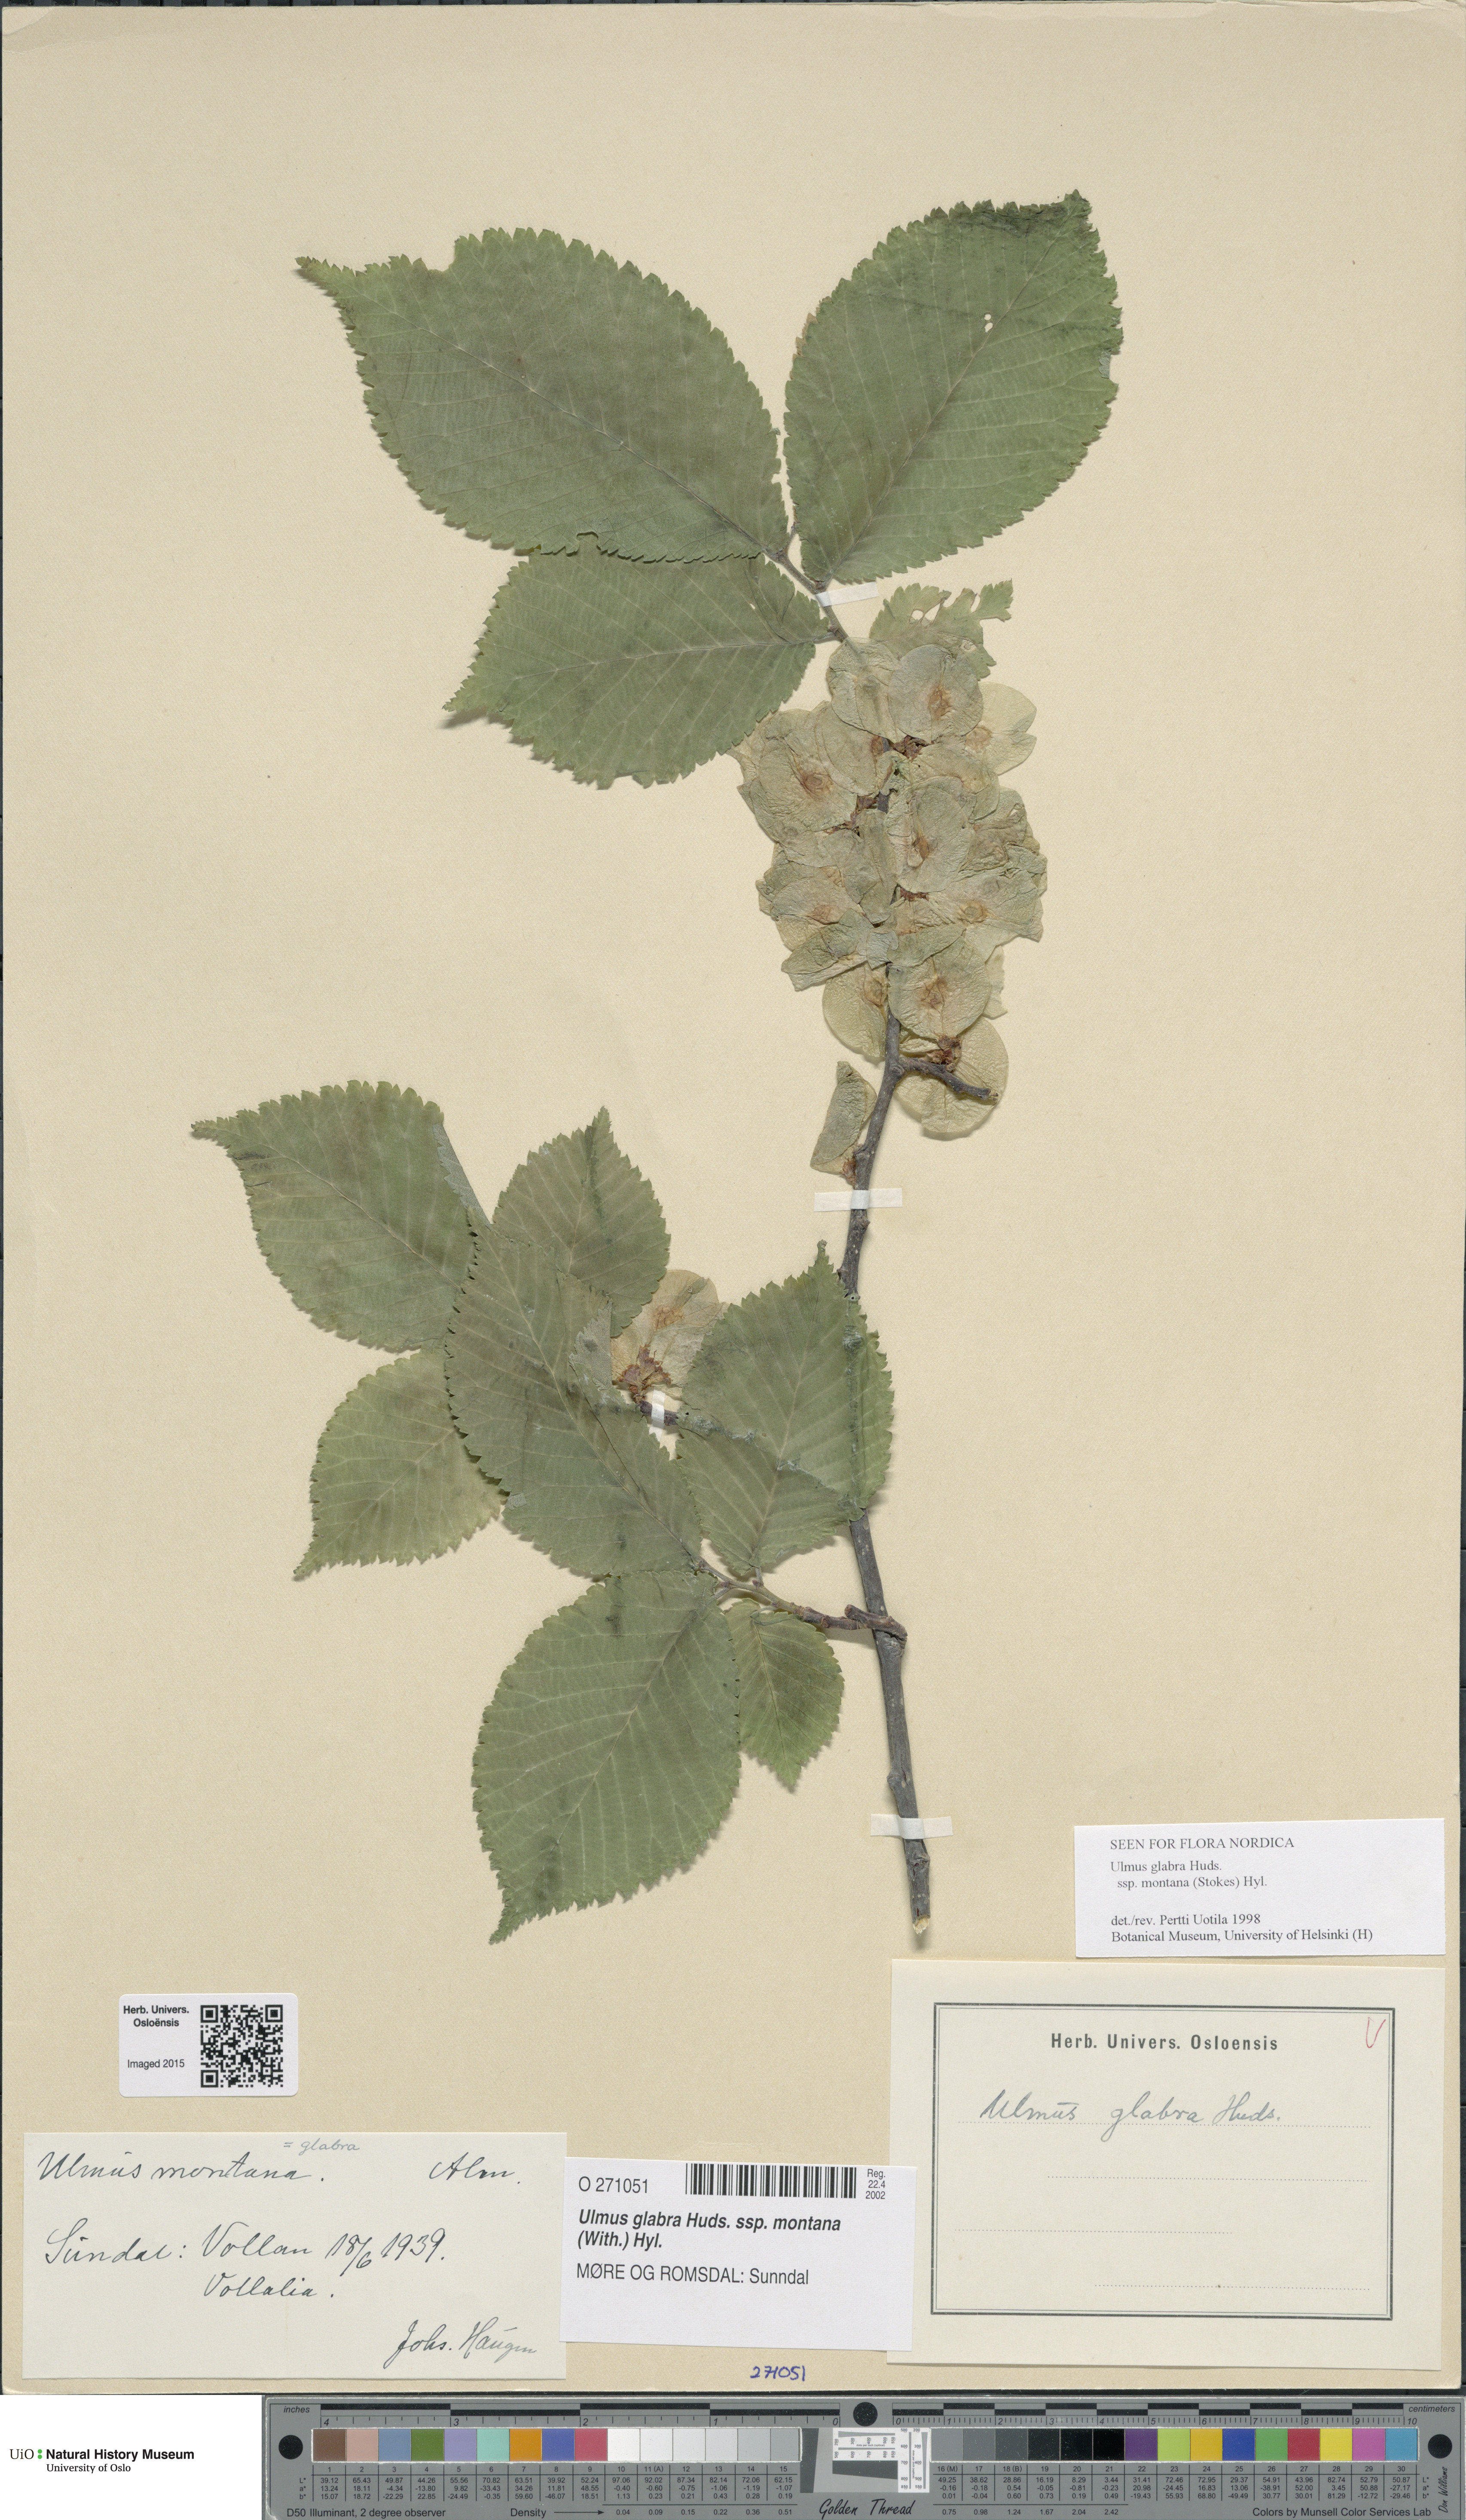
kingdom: Plantae
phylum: Tracheophyta
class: Magnoliopsida
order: Rosales
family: Ulmaceae
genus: Ulmus
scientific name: Ulmus glabra
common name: Wych elm
